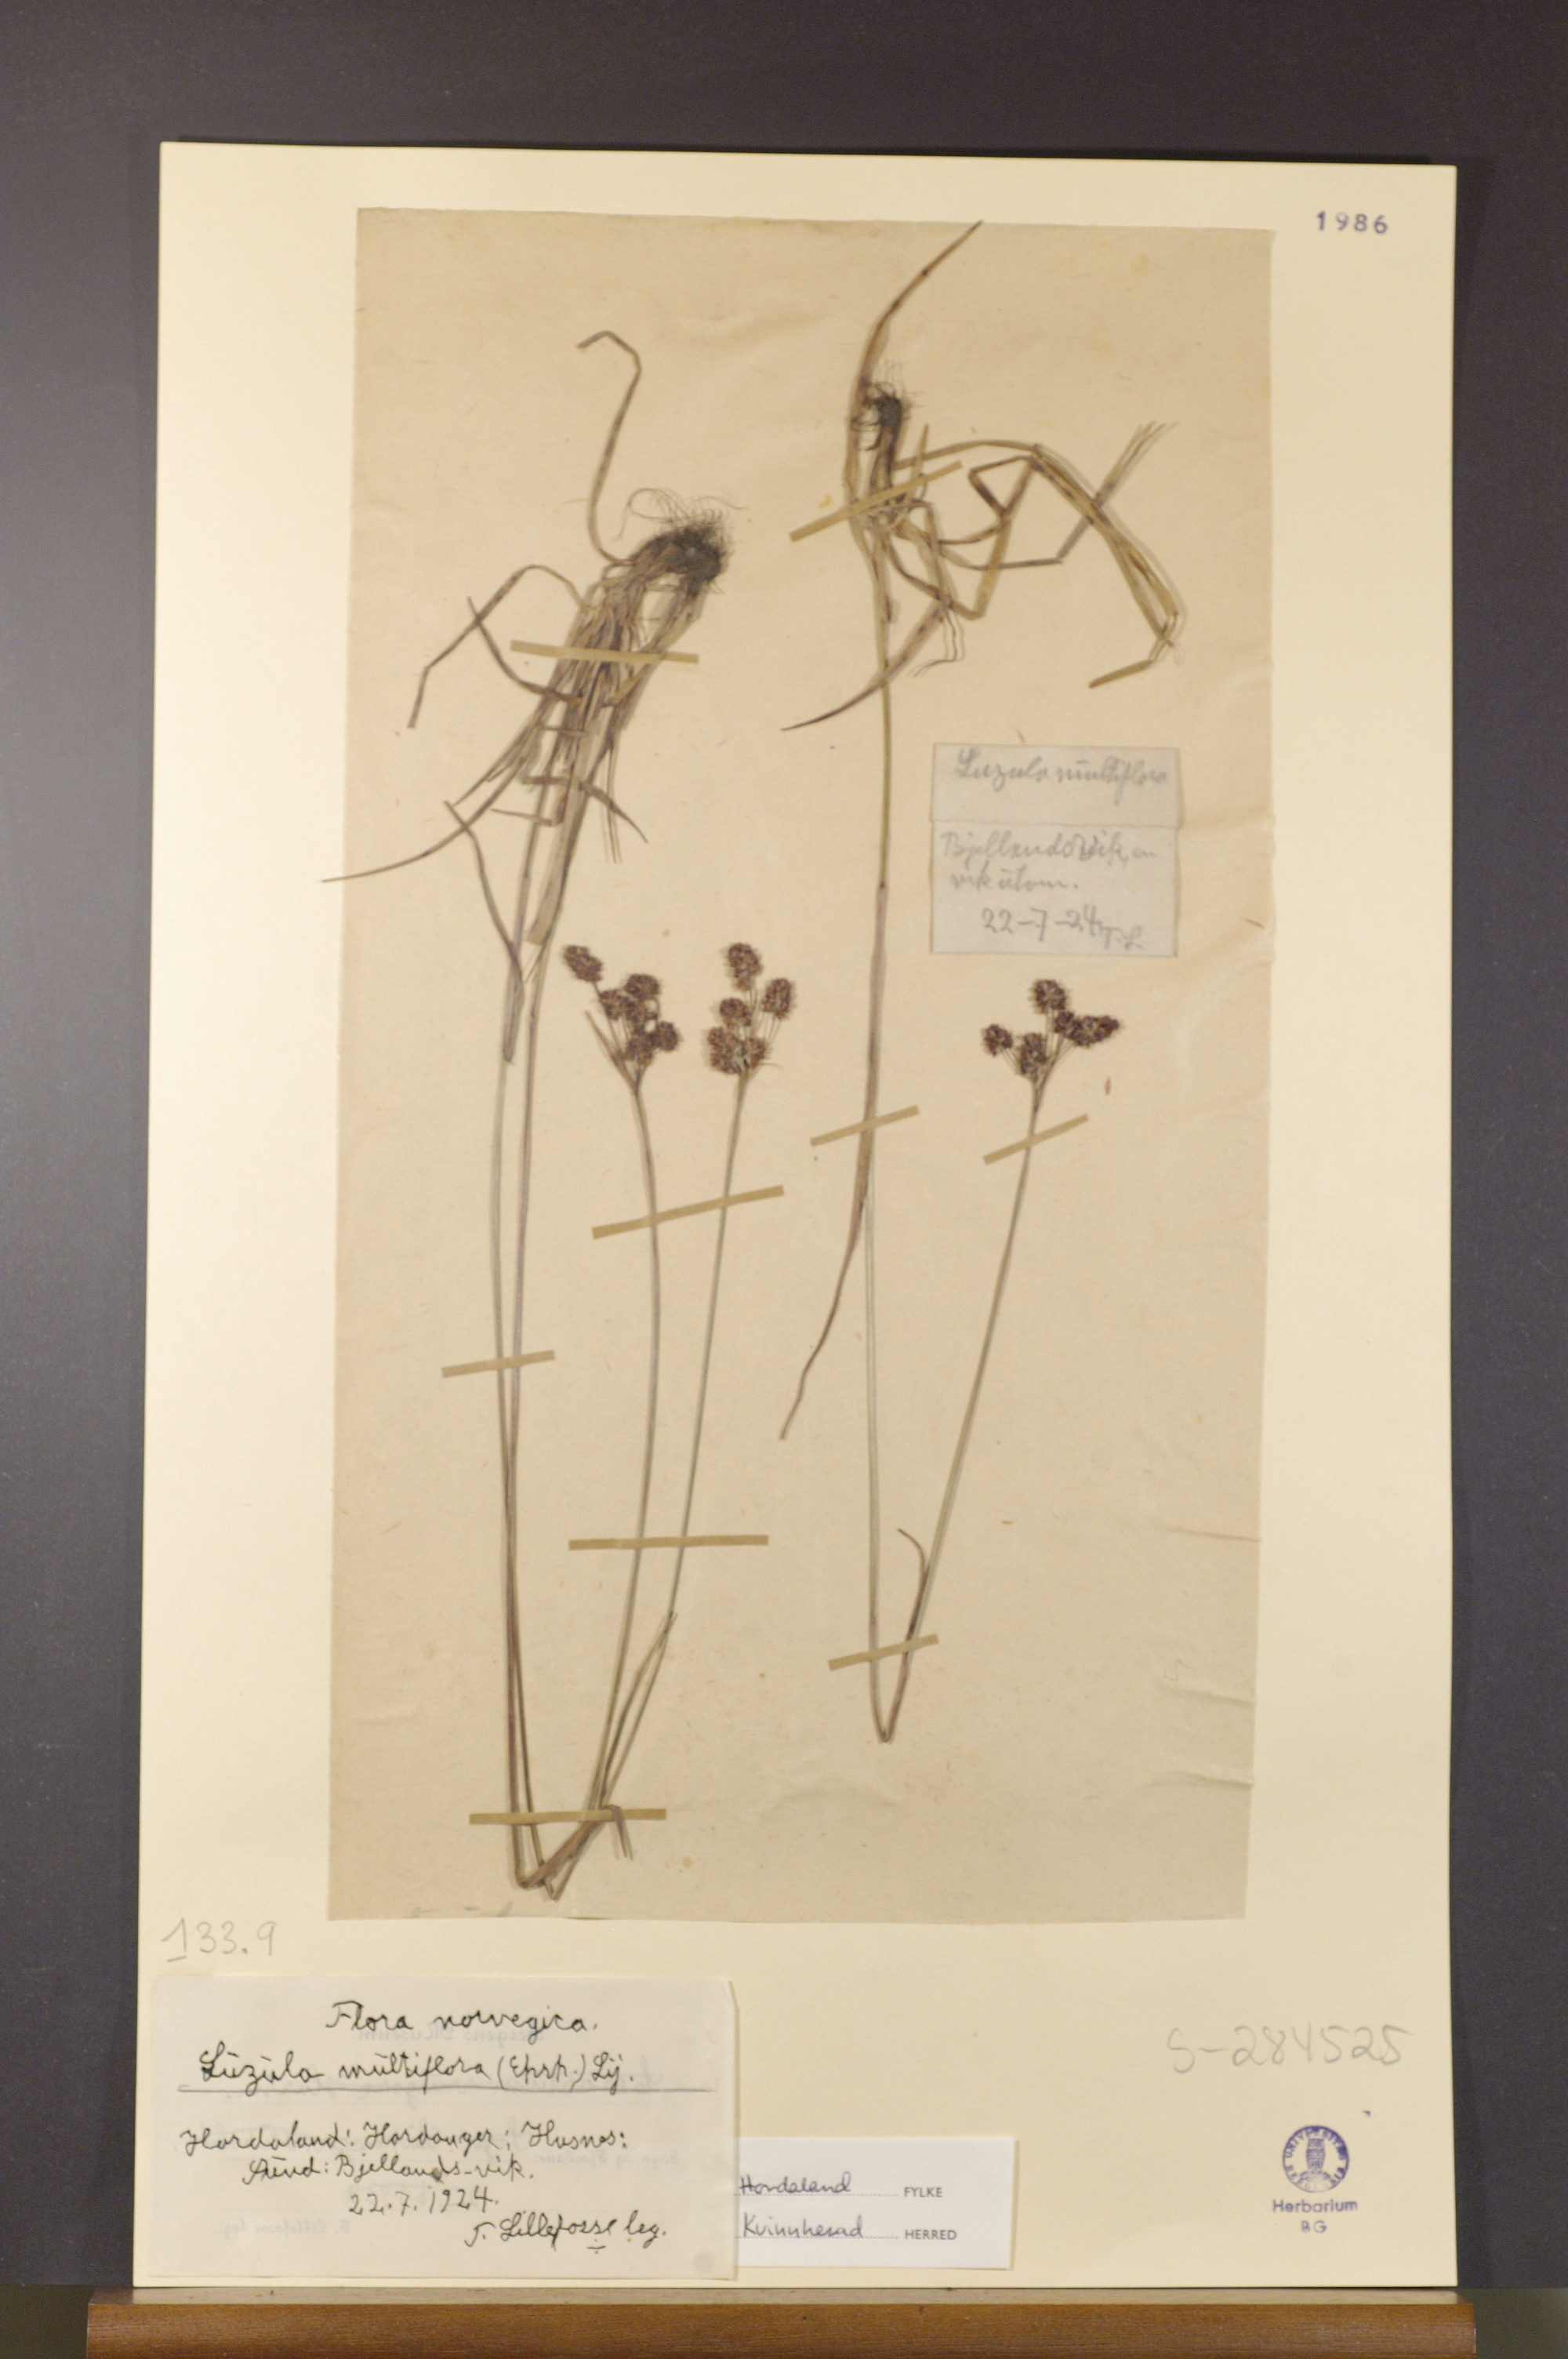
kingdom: Plantae
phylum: Tracheophyta
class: Liliopsida
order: Poales
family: Juncaceae
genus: Luzula
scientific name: Luzula multiflora
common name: Heath wood-rush
